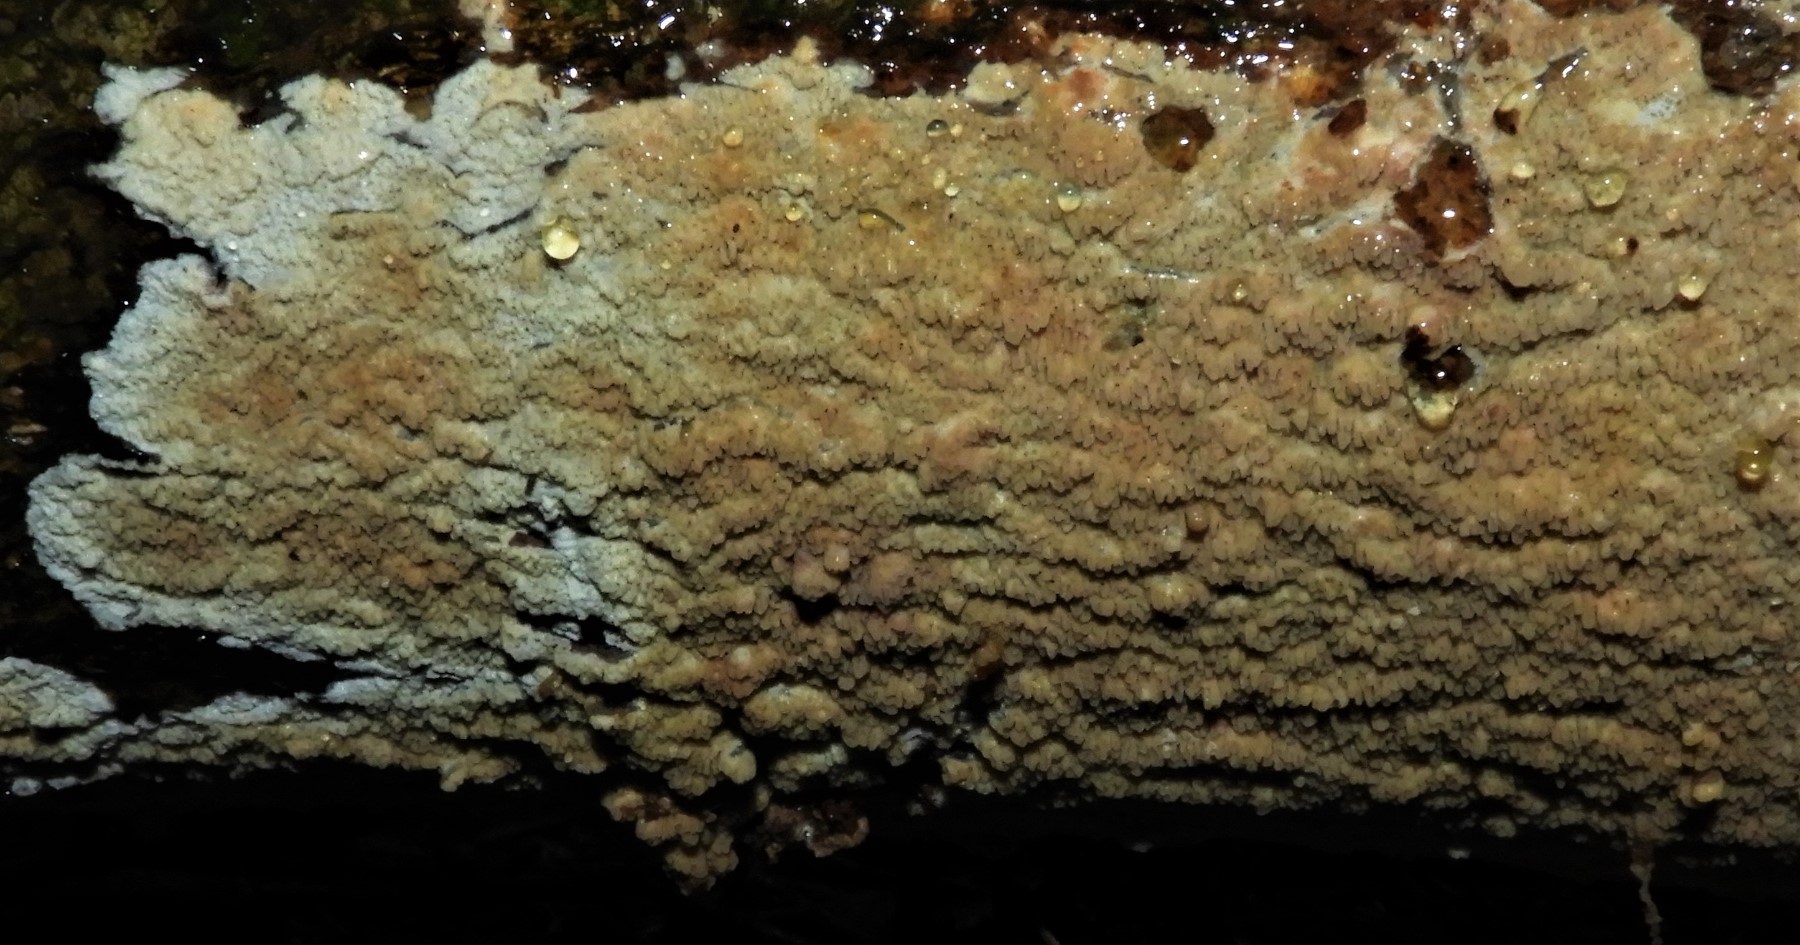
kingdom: Fungi
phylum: Basidiomycota
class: Agaricomycetes
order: Corticiales
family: Corticiaceae
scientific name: Corticiaceae
